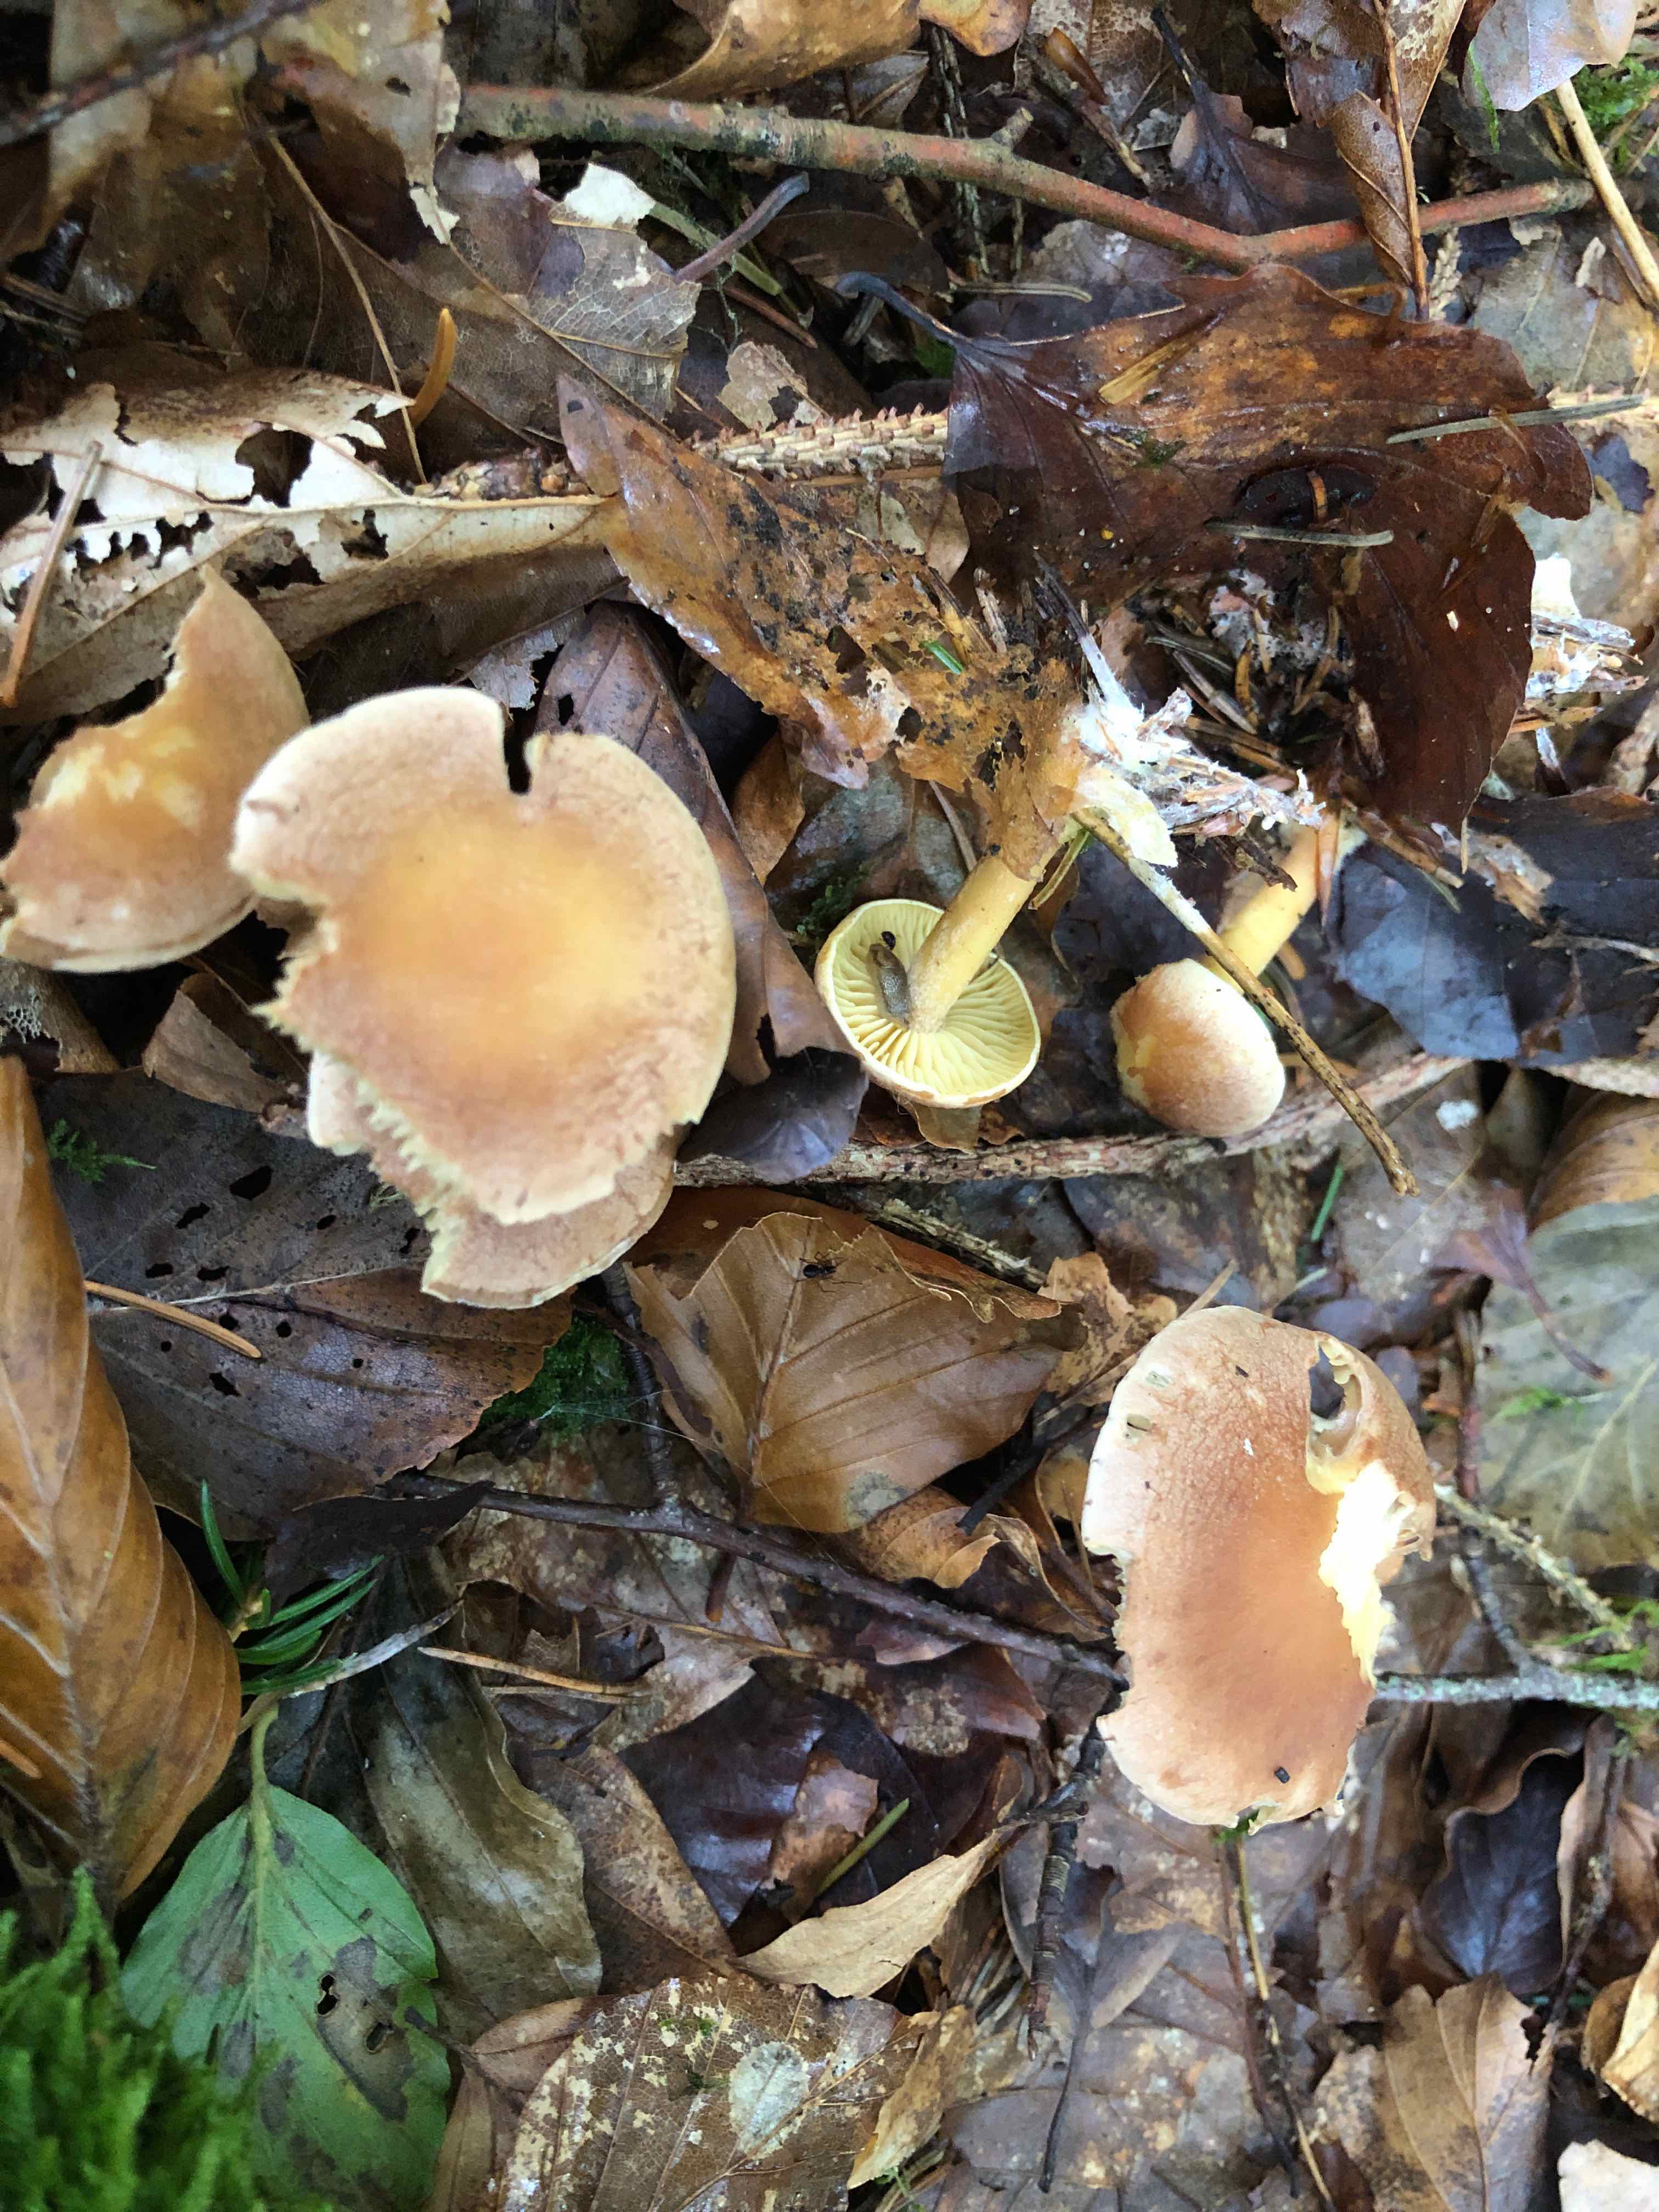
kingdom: Fungi
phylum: Basidiomycota
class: Agaricomycetes
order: Agaricales
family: Omphalotaceae
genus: Collybiopsis
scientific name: Collybiopsis peronata
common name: bestøvlet fladhat
